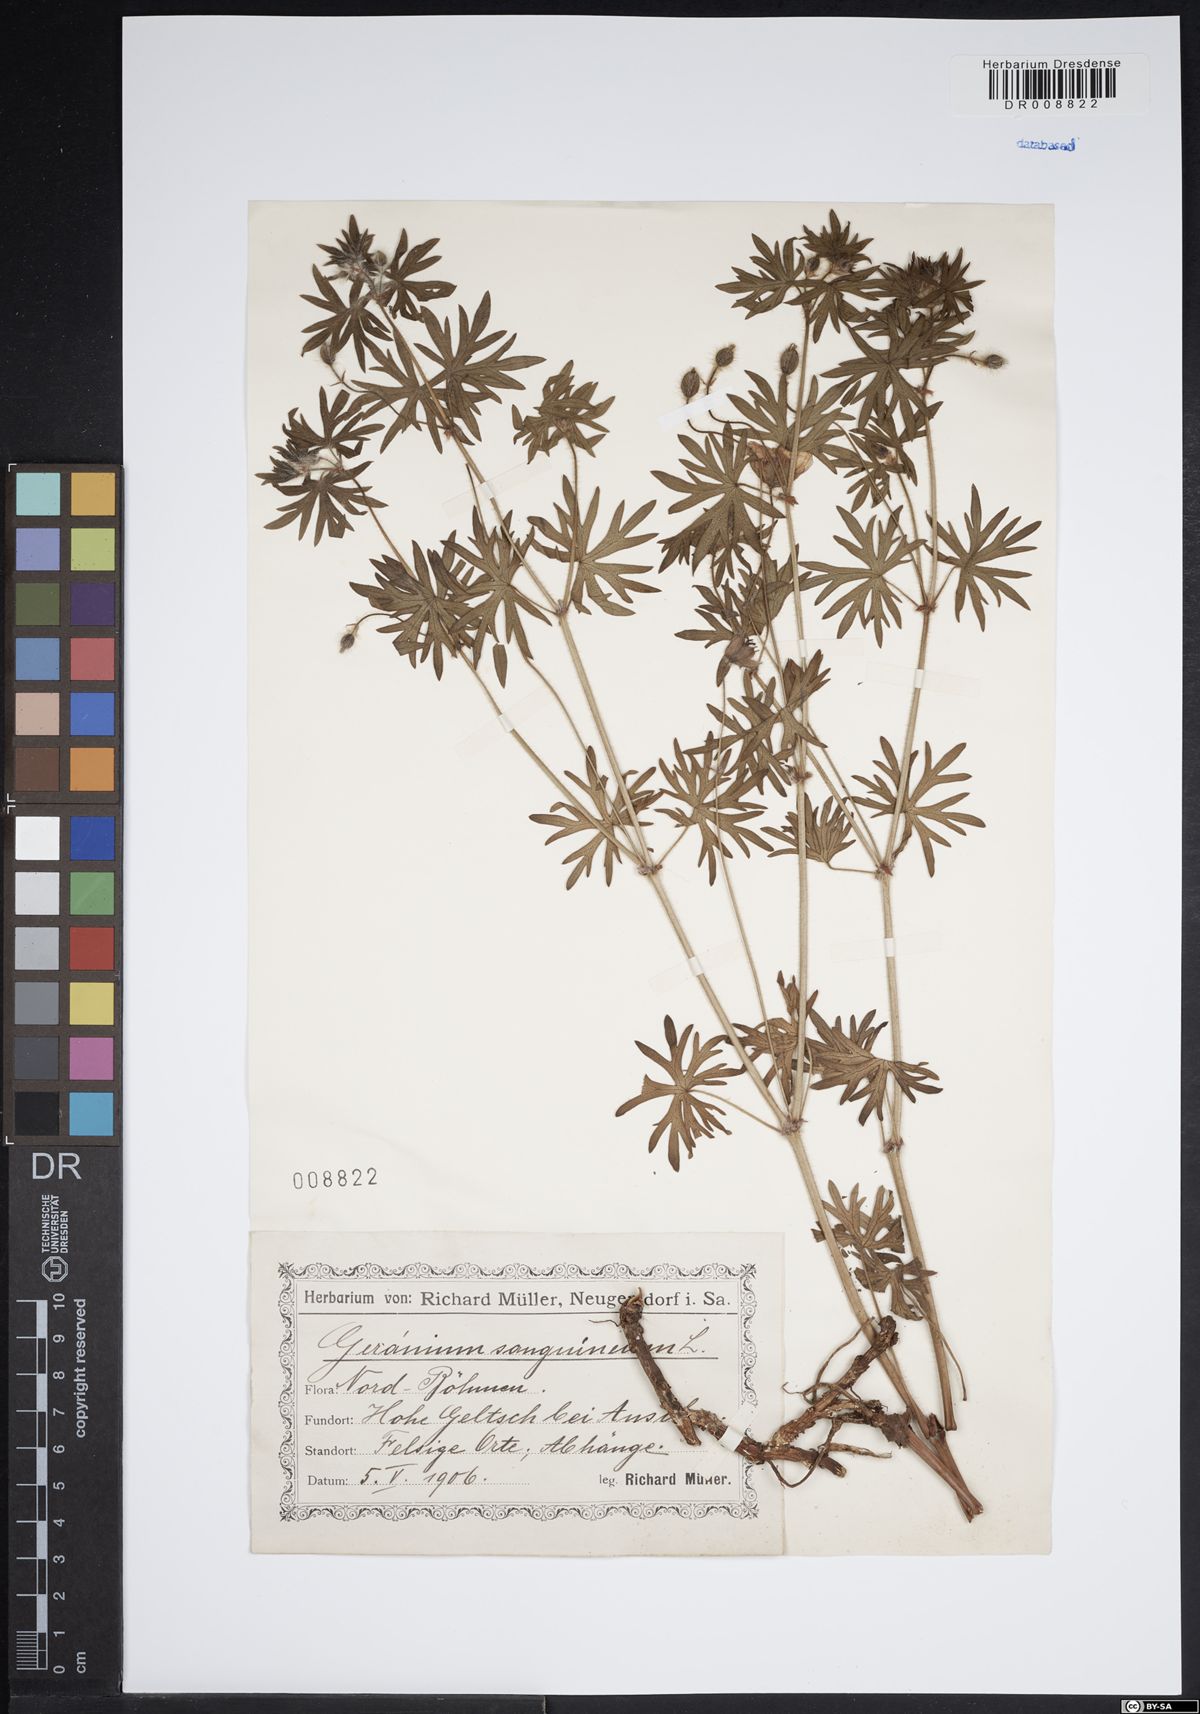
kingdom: Plantae
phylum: Tracheophyta
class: Magnoliopsida
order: Geraniales
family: Geraniaceae
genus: Geranium
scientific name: Geranium sanguineum
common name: Bloody crane's-bill
